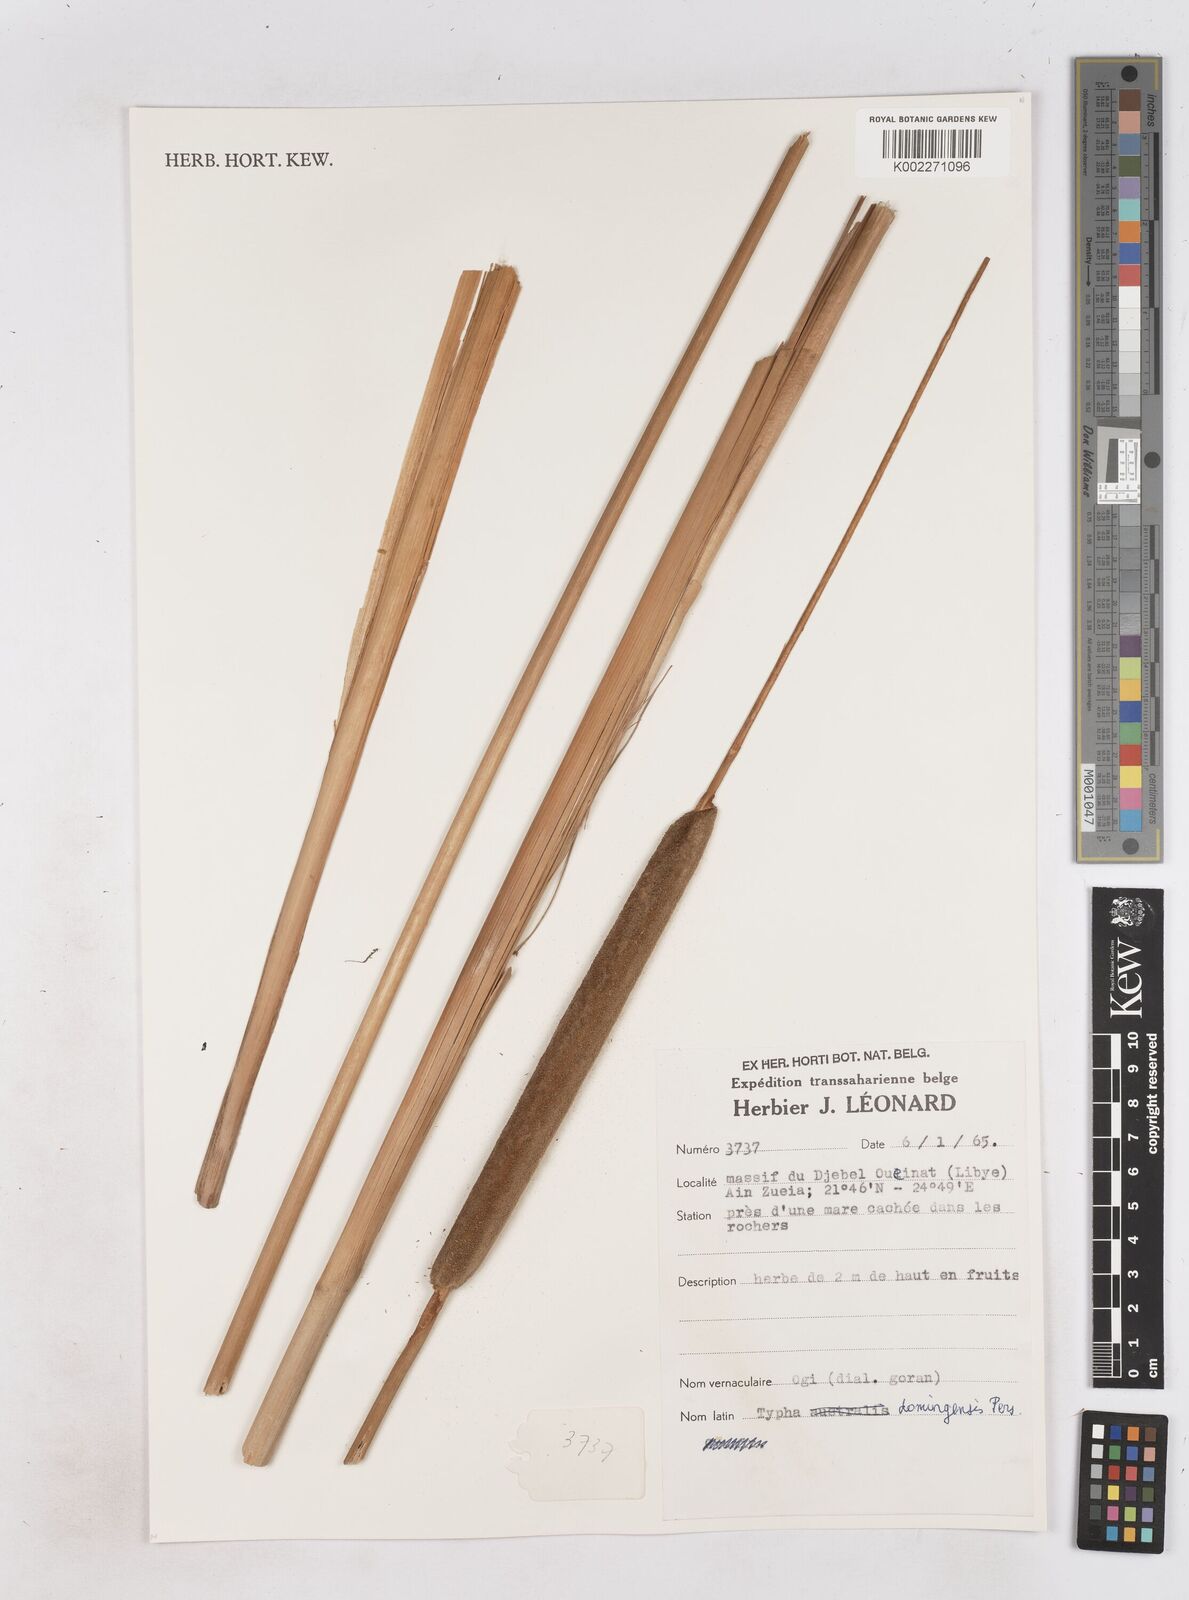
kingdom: Plantae
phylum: Tracheophyta
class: Liliopsida
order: Poales
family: Typhaceae
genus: Typha
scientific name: Typha domingensis
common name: Southern cattail
